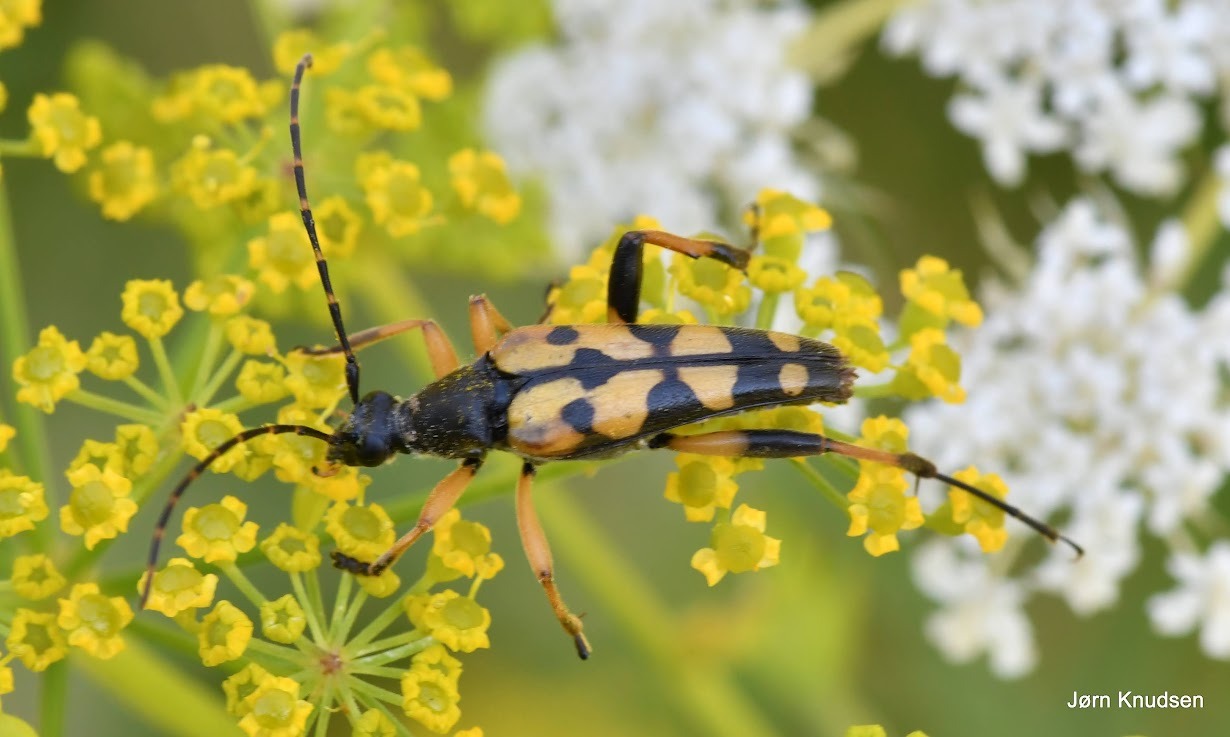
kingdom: Animalia
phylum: Arthropoda
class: Insecta
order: Coleoptera
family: Cerambycidae
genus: Rutpela
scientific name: Rutpela maculata
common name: Sydlig blomsterbuk
